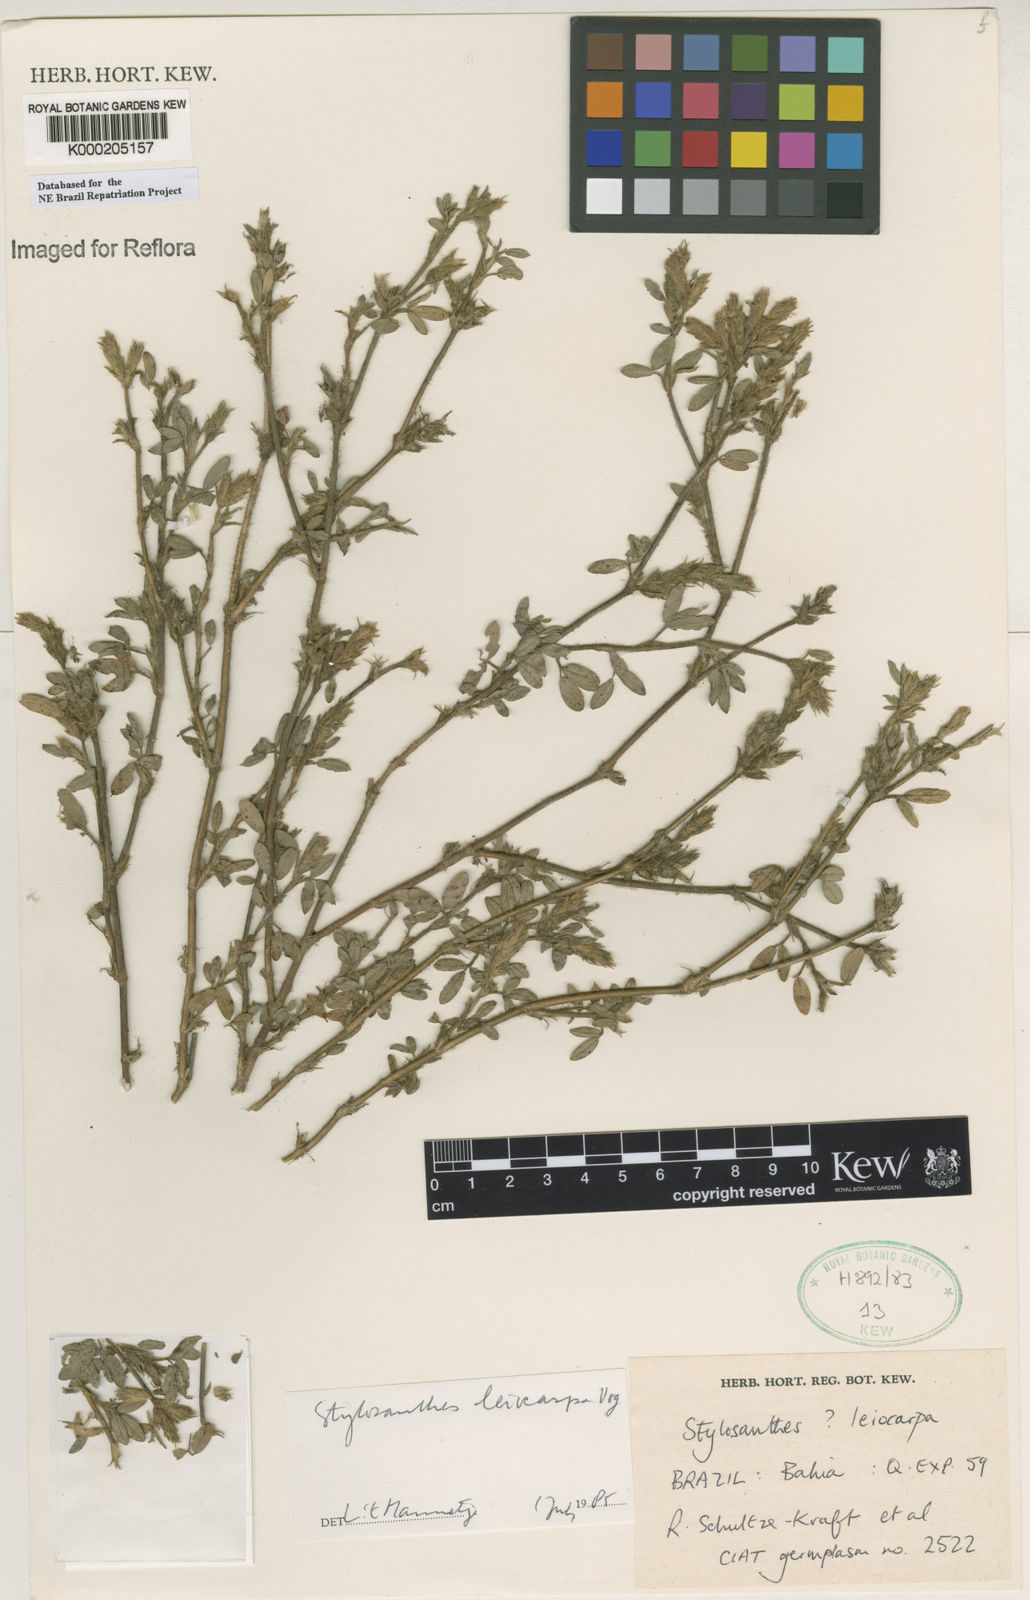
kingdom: Plantae
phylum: Tracheophyta
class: Magnoliopsida
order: Fabales
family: Fabaceae
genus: Stylosanthes
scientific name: Stylosanthes leiocarpa
